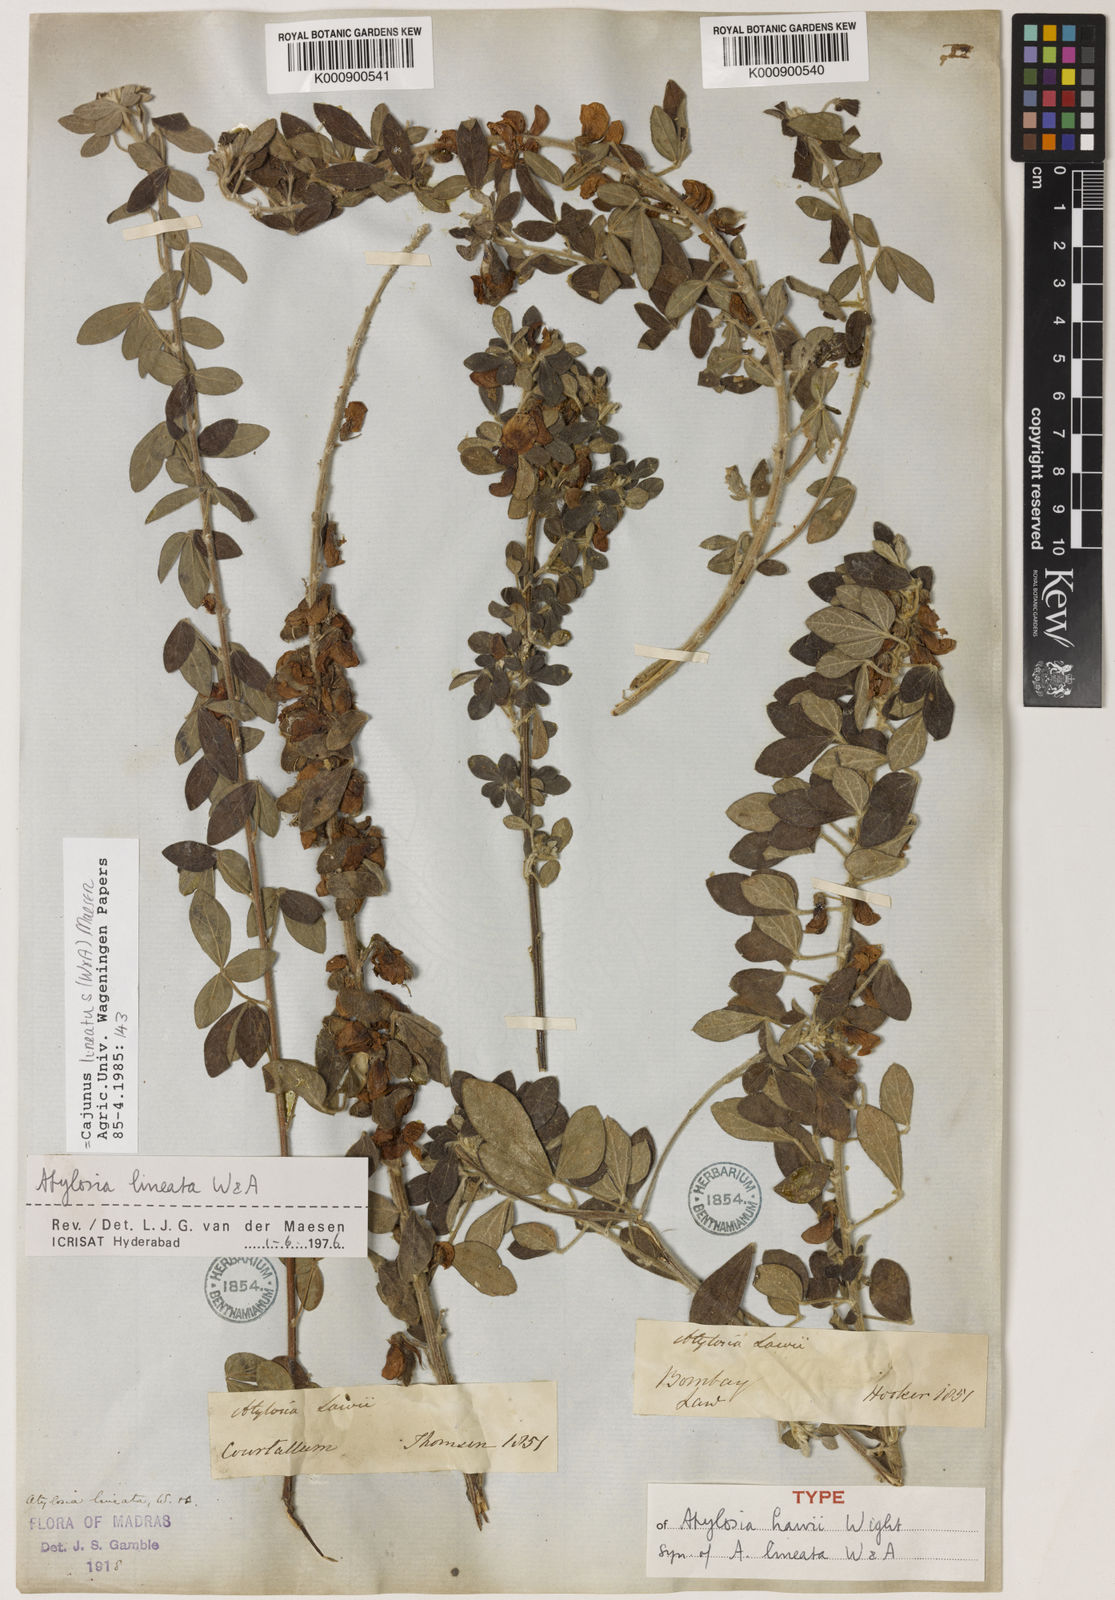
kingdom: Plantae
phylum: Tracheophyta
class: Magnoliopsida
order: Fabales
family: Fabaceae
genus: Cajanus
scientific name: Cajanus lineatus
